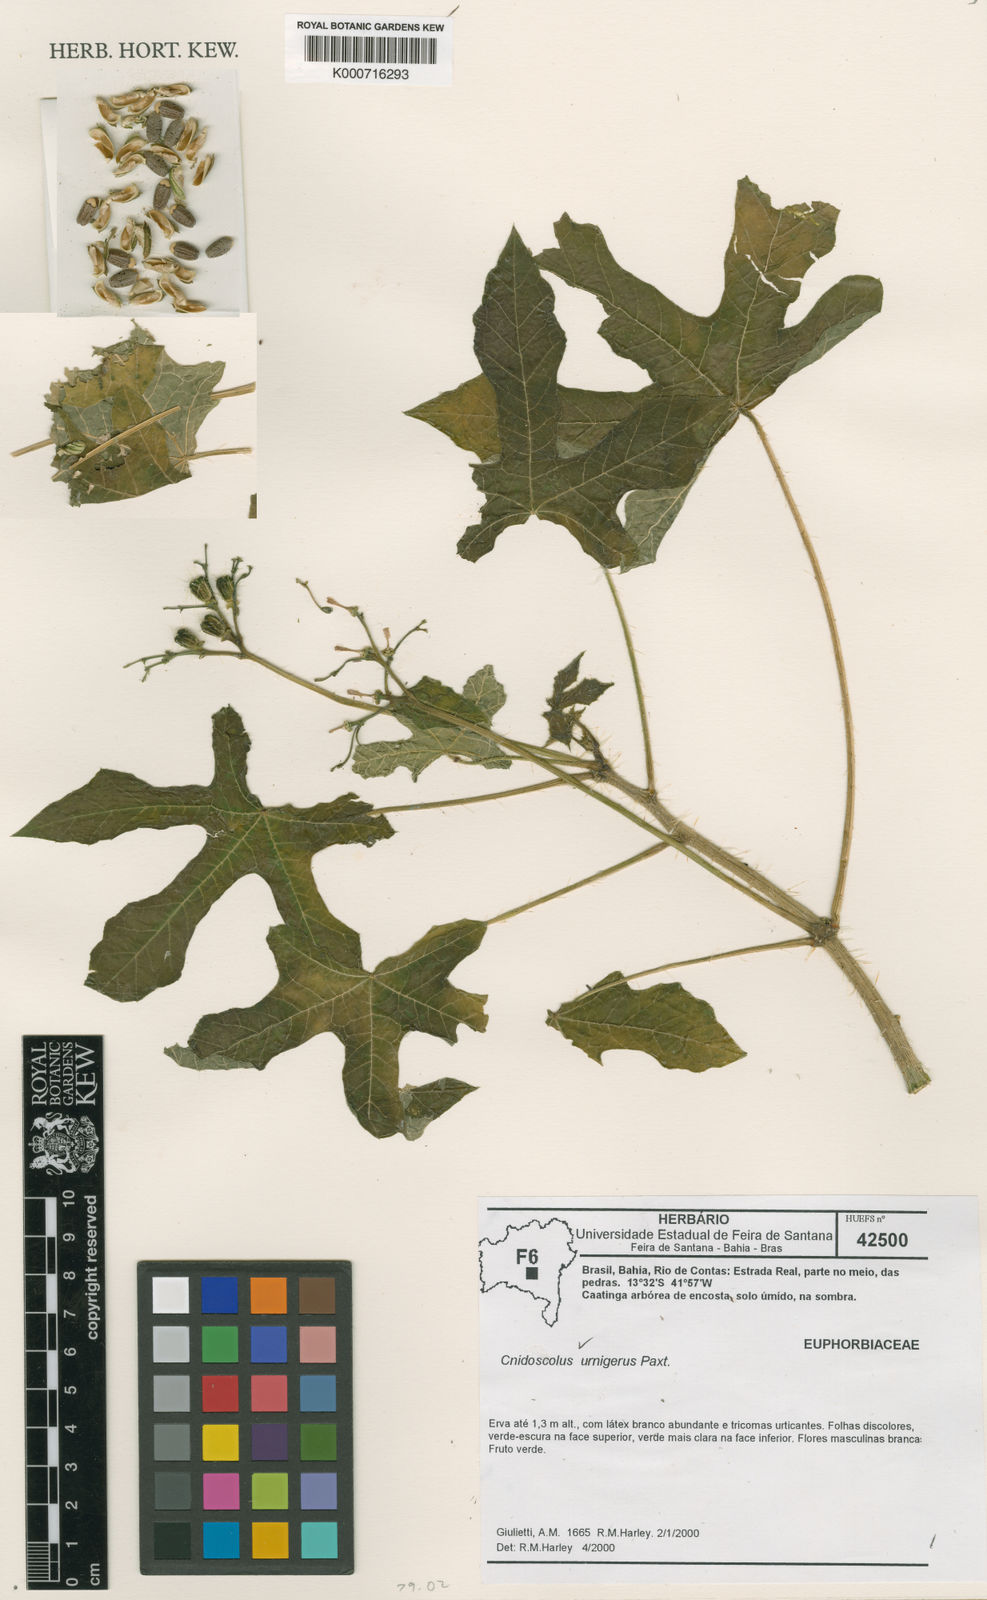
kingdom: Plantae
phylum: Tracheophyta
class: Magnoliopsida
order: Malpighiales
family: Euphorbiaceae
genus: Cnidoscolus
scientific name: Cnidoscolus urnigerus
